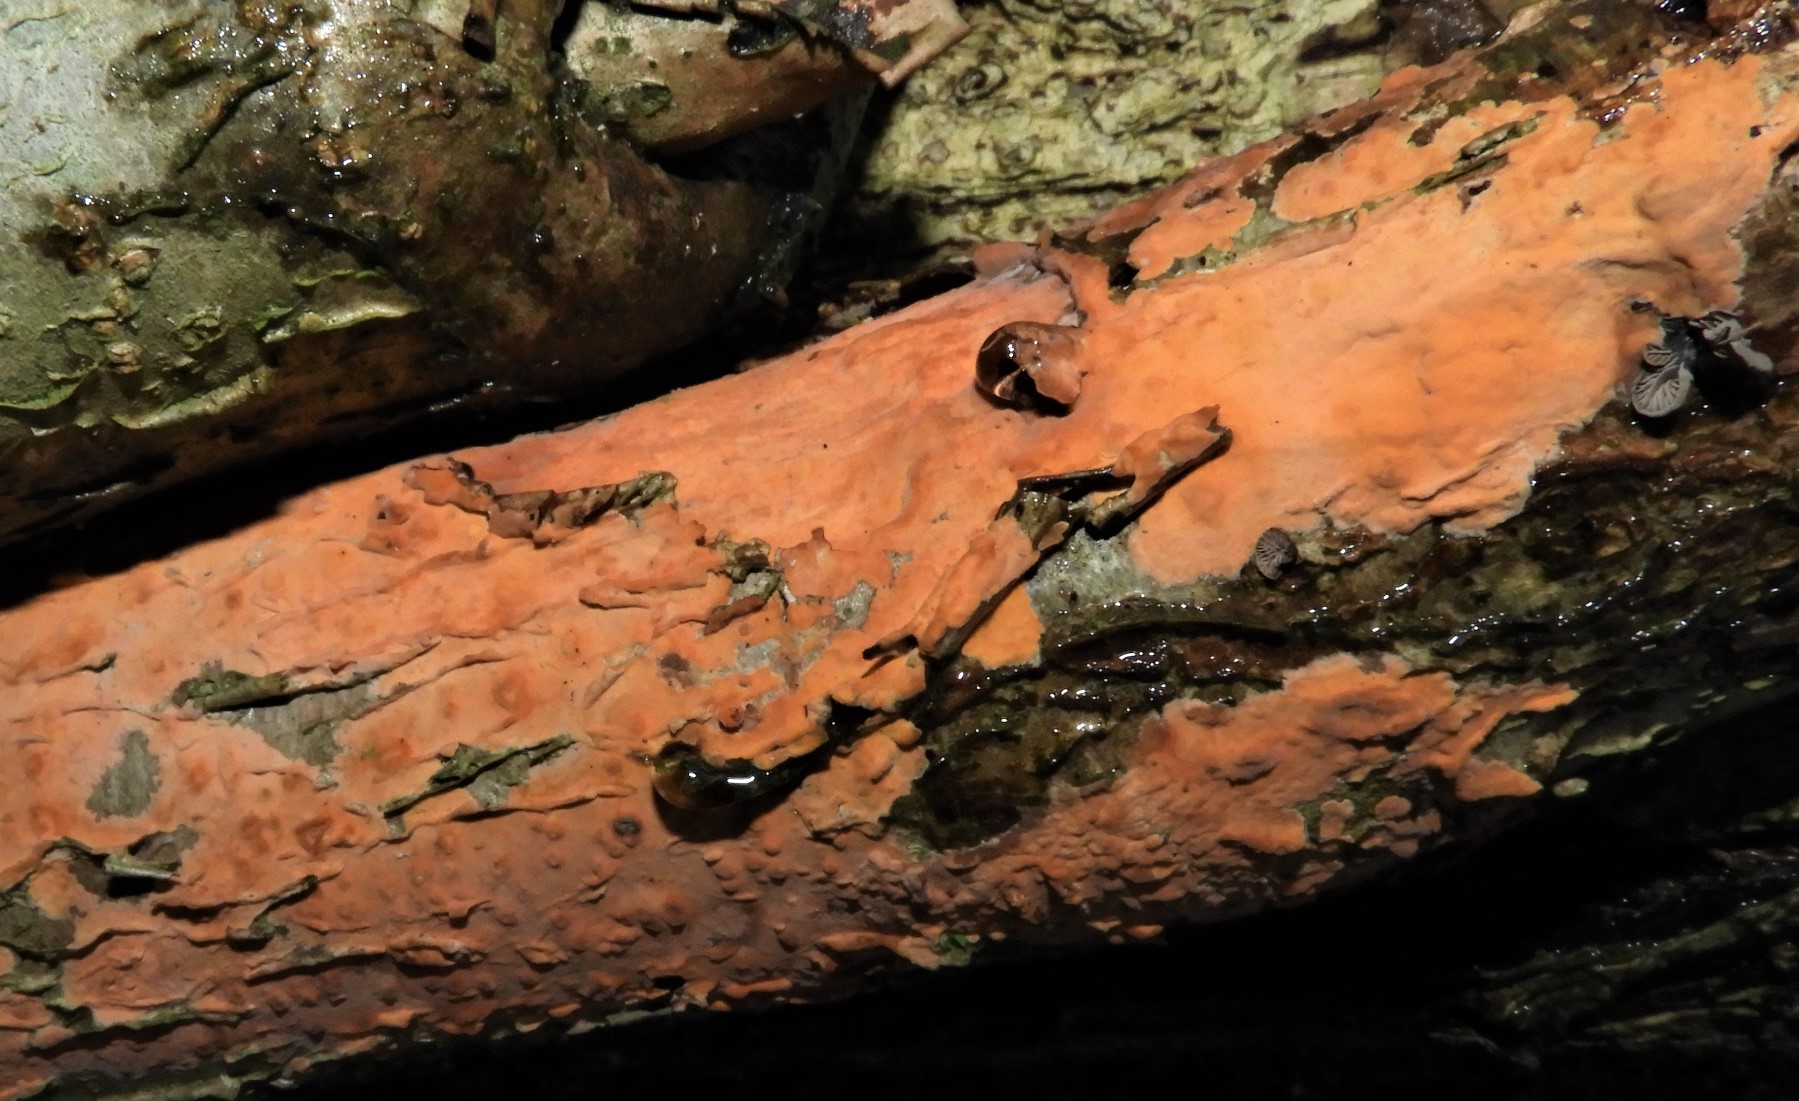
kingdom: Fungi
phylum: Basidiomycota
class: Agaricomycetes
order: Russulales
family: Peniophoraceae
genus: Peniophora
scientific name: Peniophora incarnata
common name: laksefarvet voksskind
